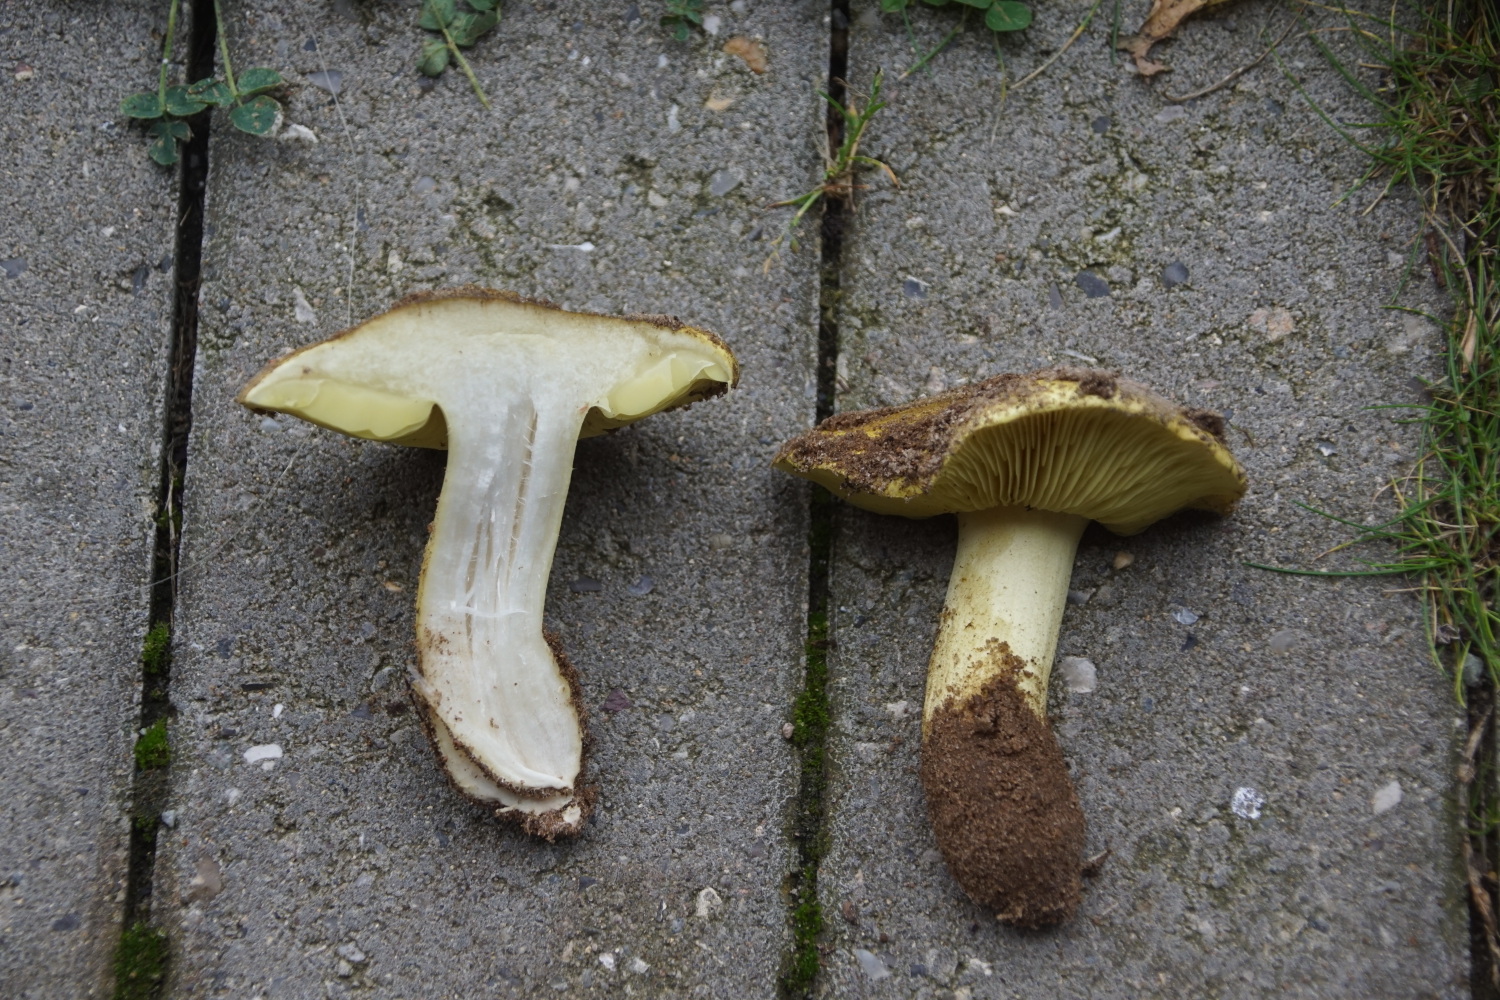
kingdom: Fungi
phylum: Basidiomycota
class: Agaricomycetes
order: Agaricales
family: Tricholomataceae
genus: Tricholoma
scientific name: Tricholoma equestre
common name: ægte ridderhat
